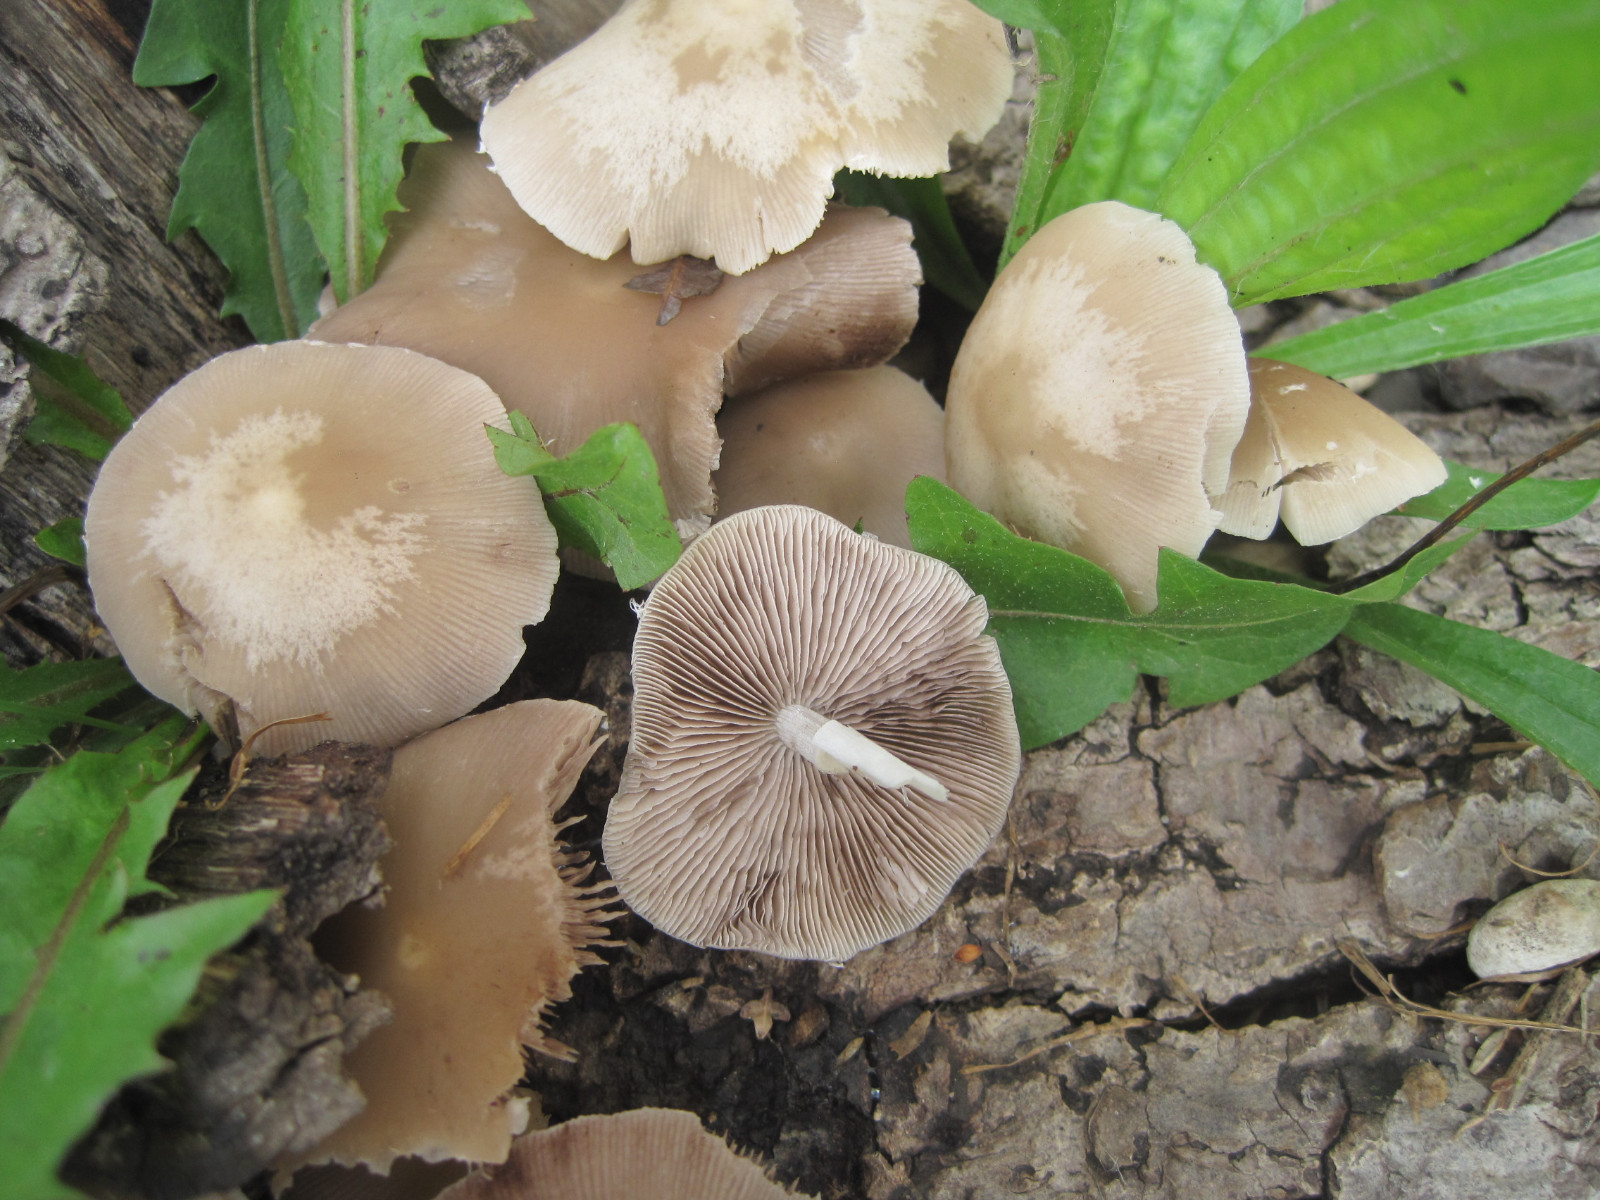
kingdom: Fungi
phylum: Basidiomycota
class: Agaricomycetes
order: Agaricales
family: Psathyrellaceae
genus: Candolleomyces
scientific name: Candolleomyces candolleanus
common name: Candolles mørkhat
